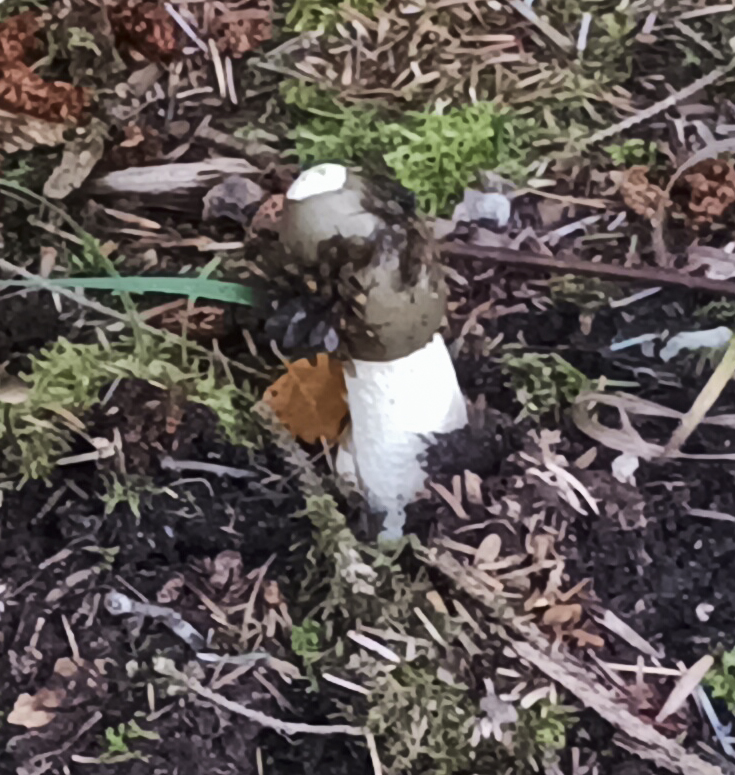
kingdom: Fungi
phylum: Basidiomycota
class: Agaricomycetes
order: Phallales
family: Phallaceae
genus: Phallus
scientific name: Phallus impudicus
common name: almindelig stinksvamp
